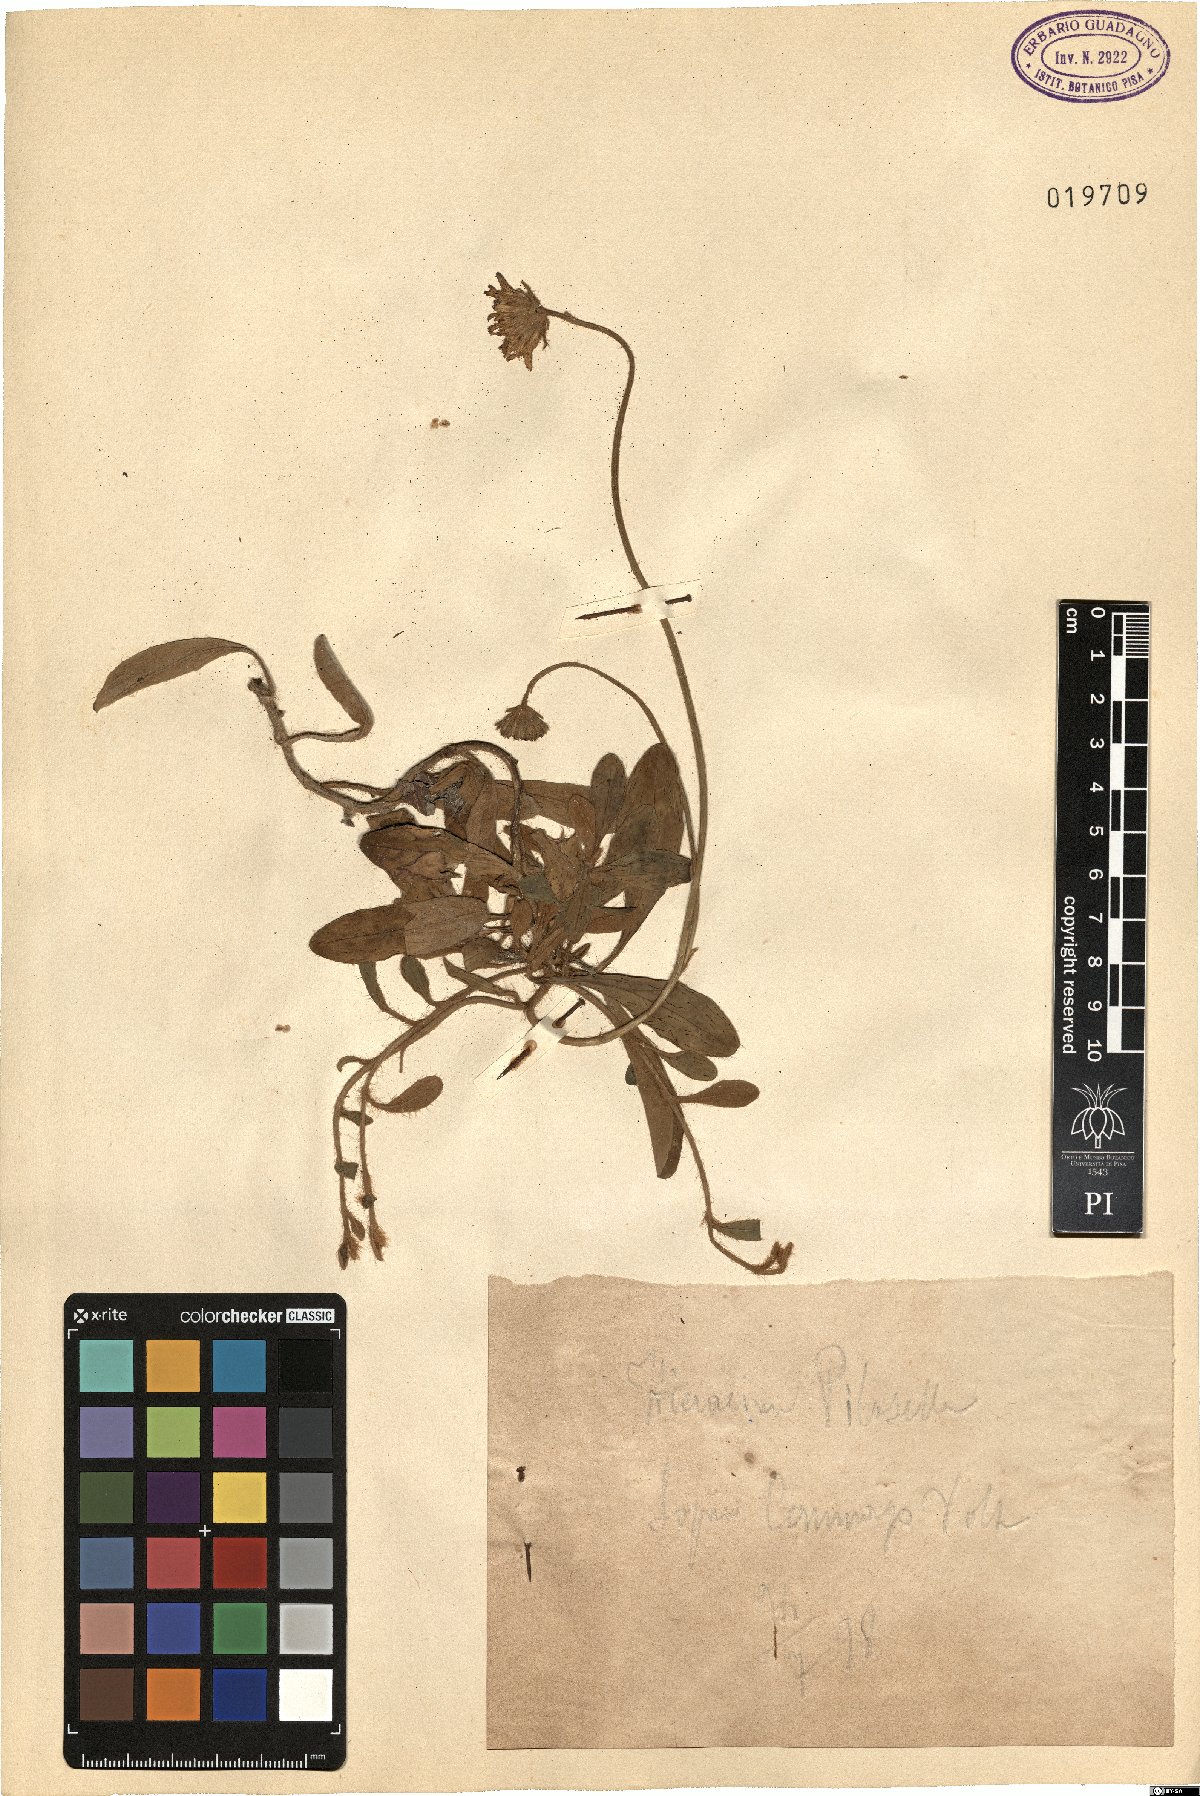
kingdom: Plantae
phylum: Tracheophyta
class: Magnoliopsida
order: Asterales
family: Asteraceae
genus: Pilosella
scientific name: Pilosella officinarum
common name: Mouse-ear hawkweed
